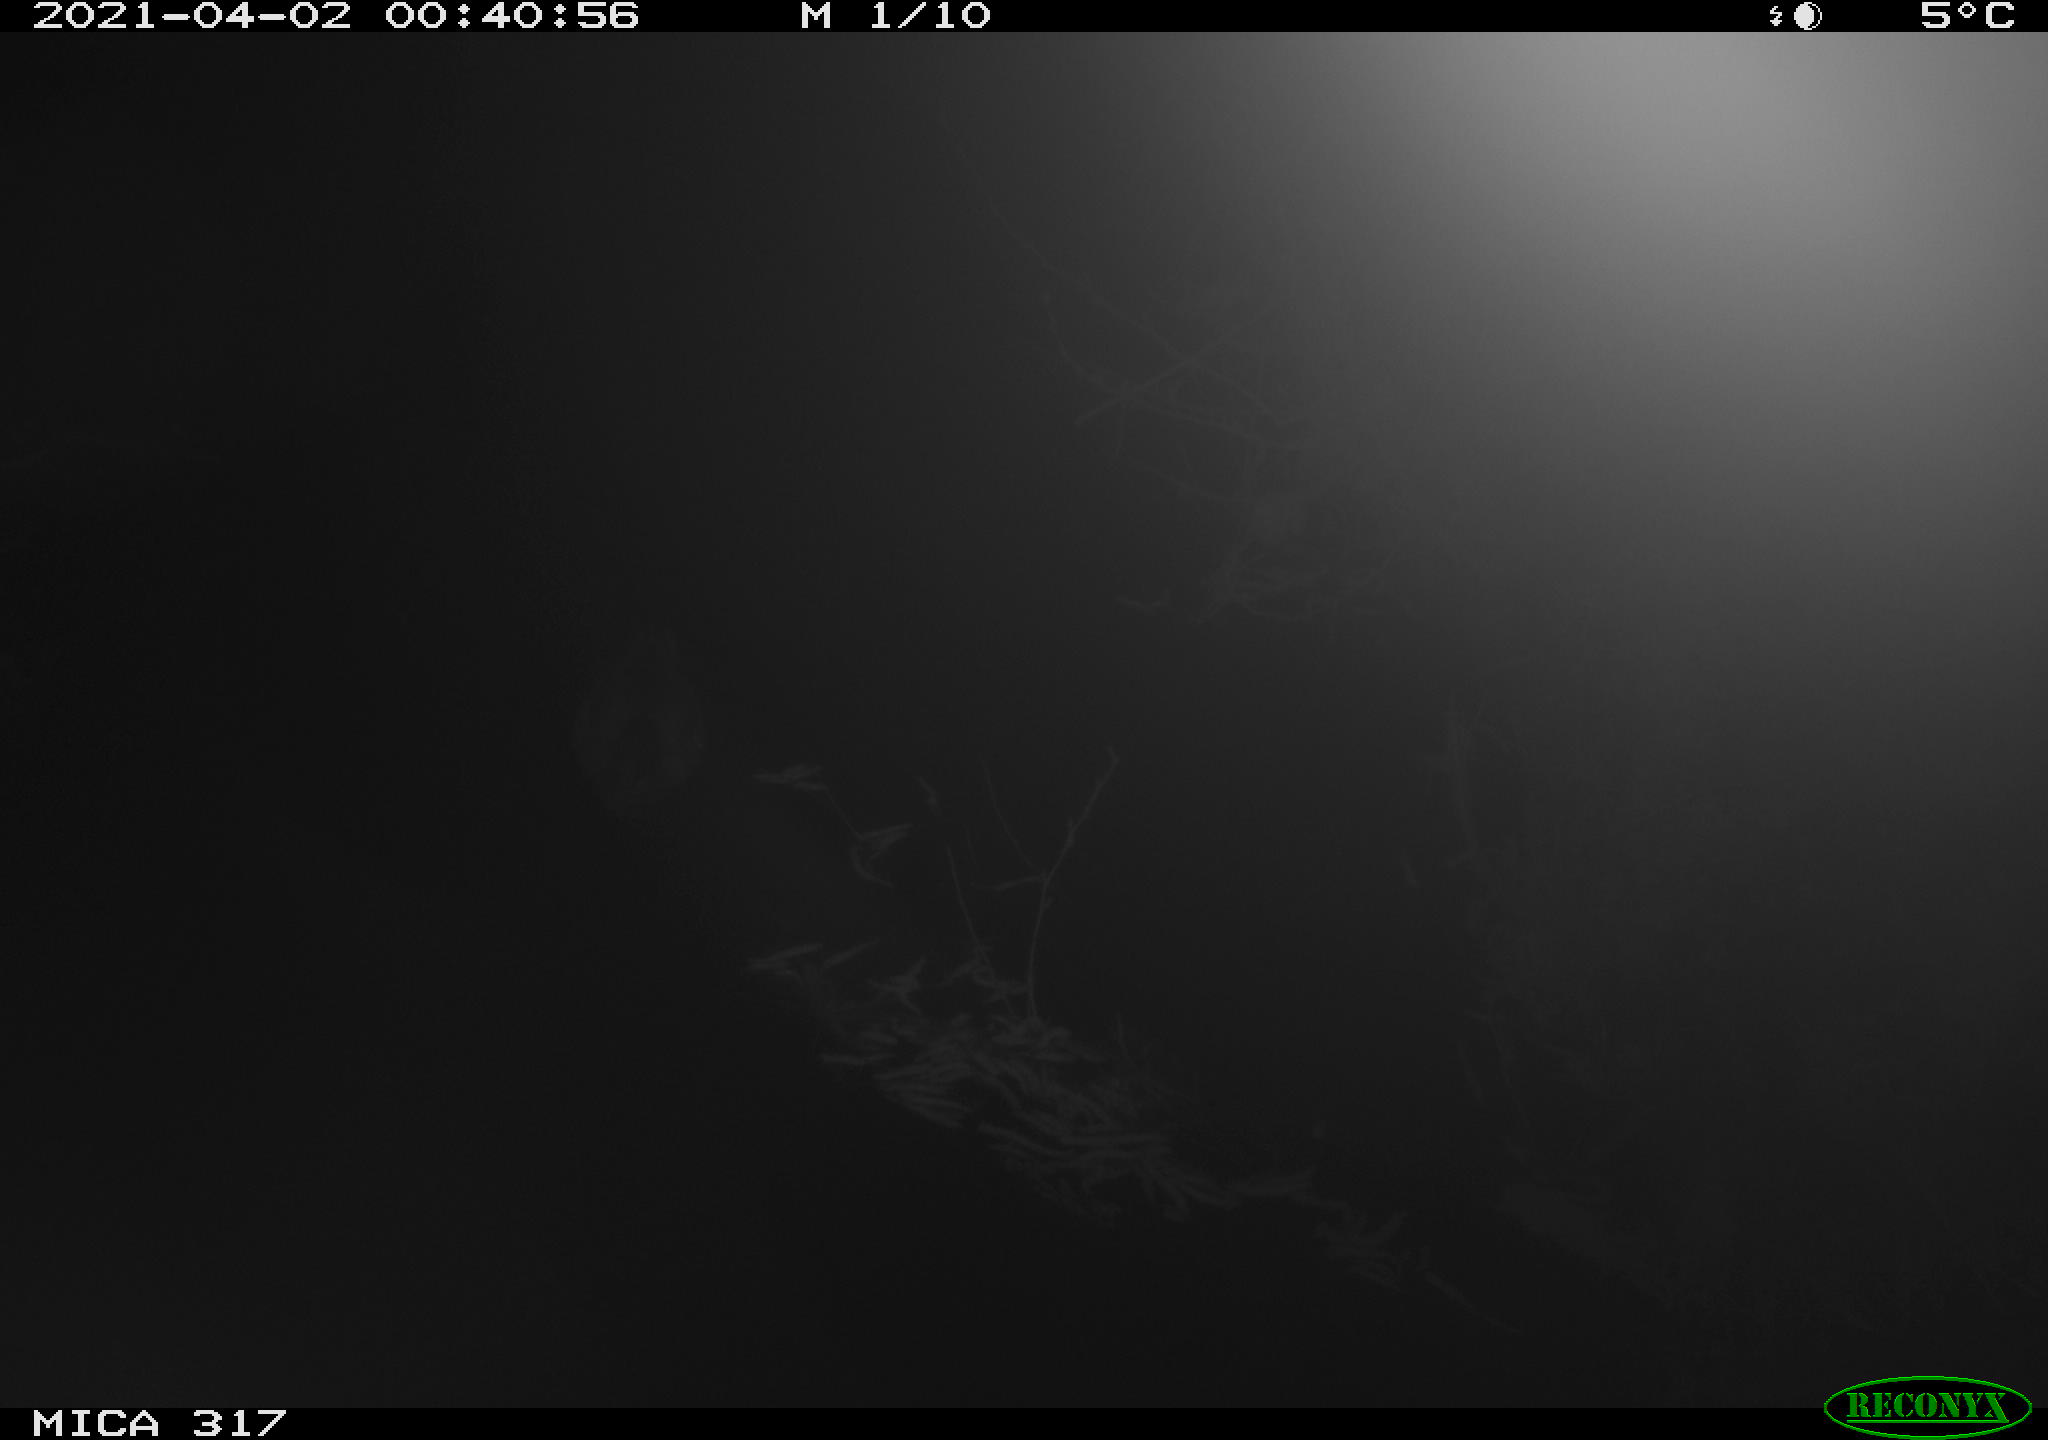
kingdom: Animalia
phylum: Chordata
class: Aves
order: Anseriformes
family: Anatidae
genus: Anas
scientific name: Anas platyrhynchos
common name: Mallard
